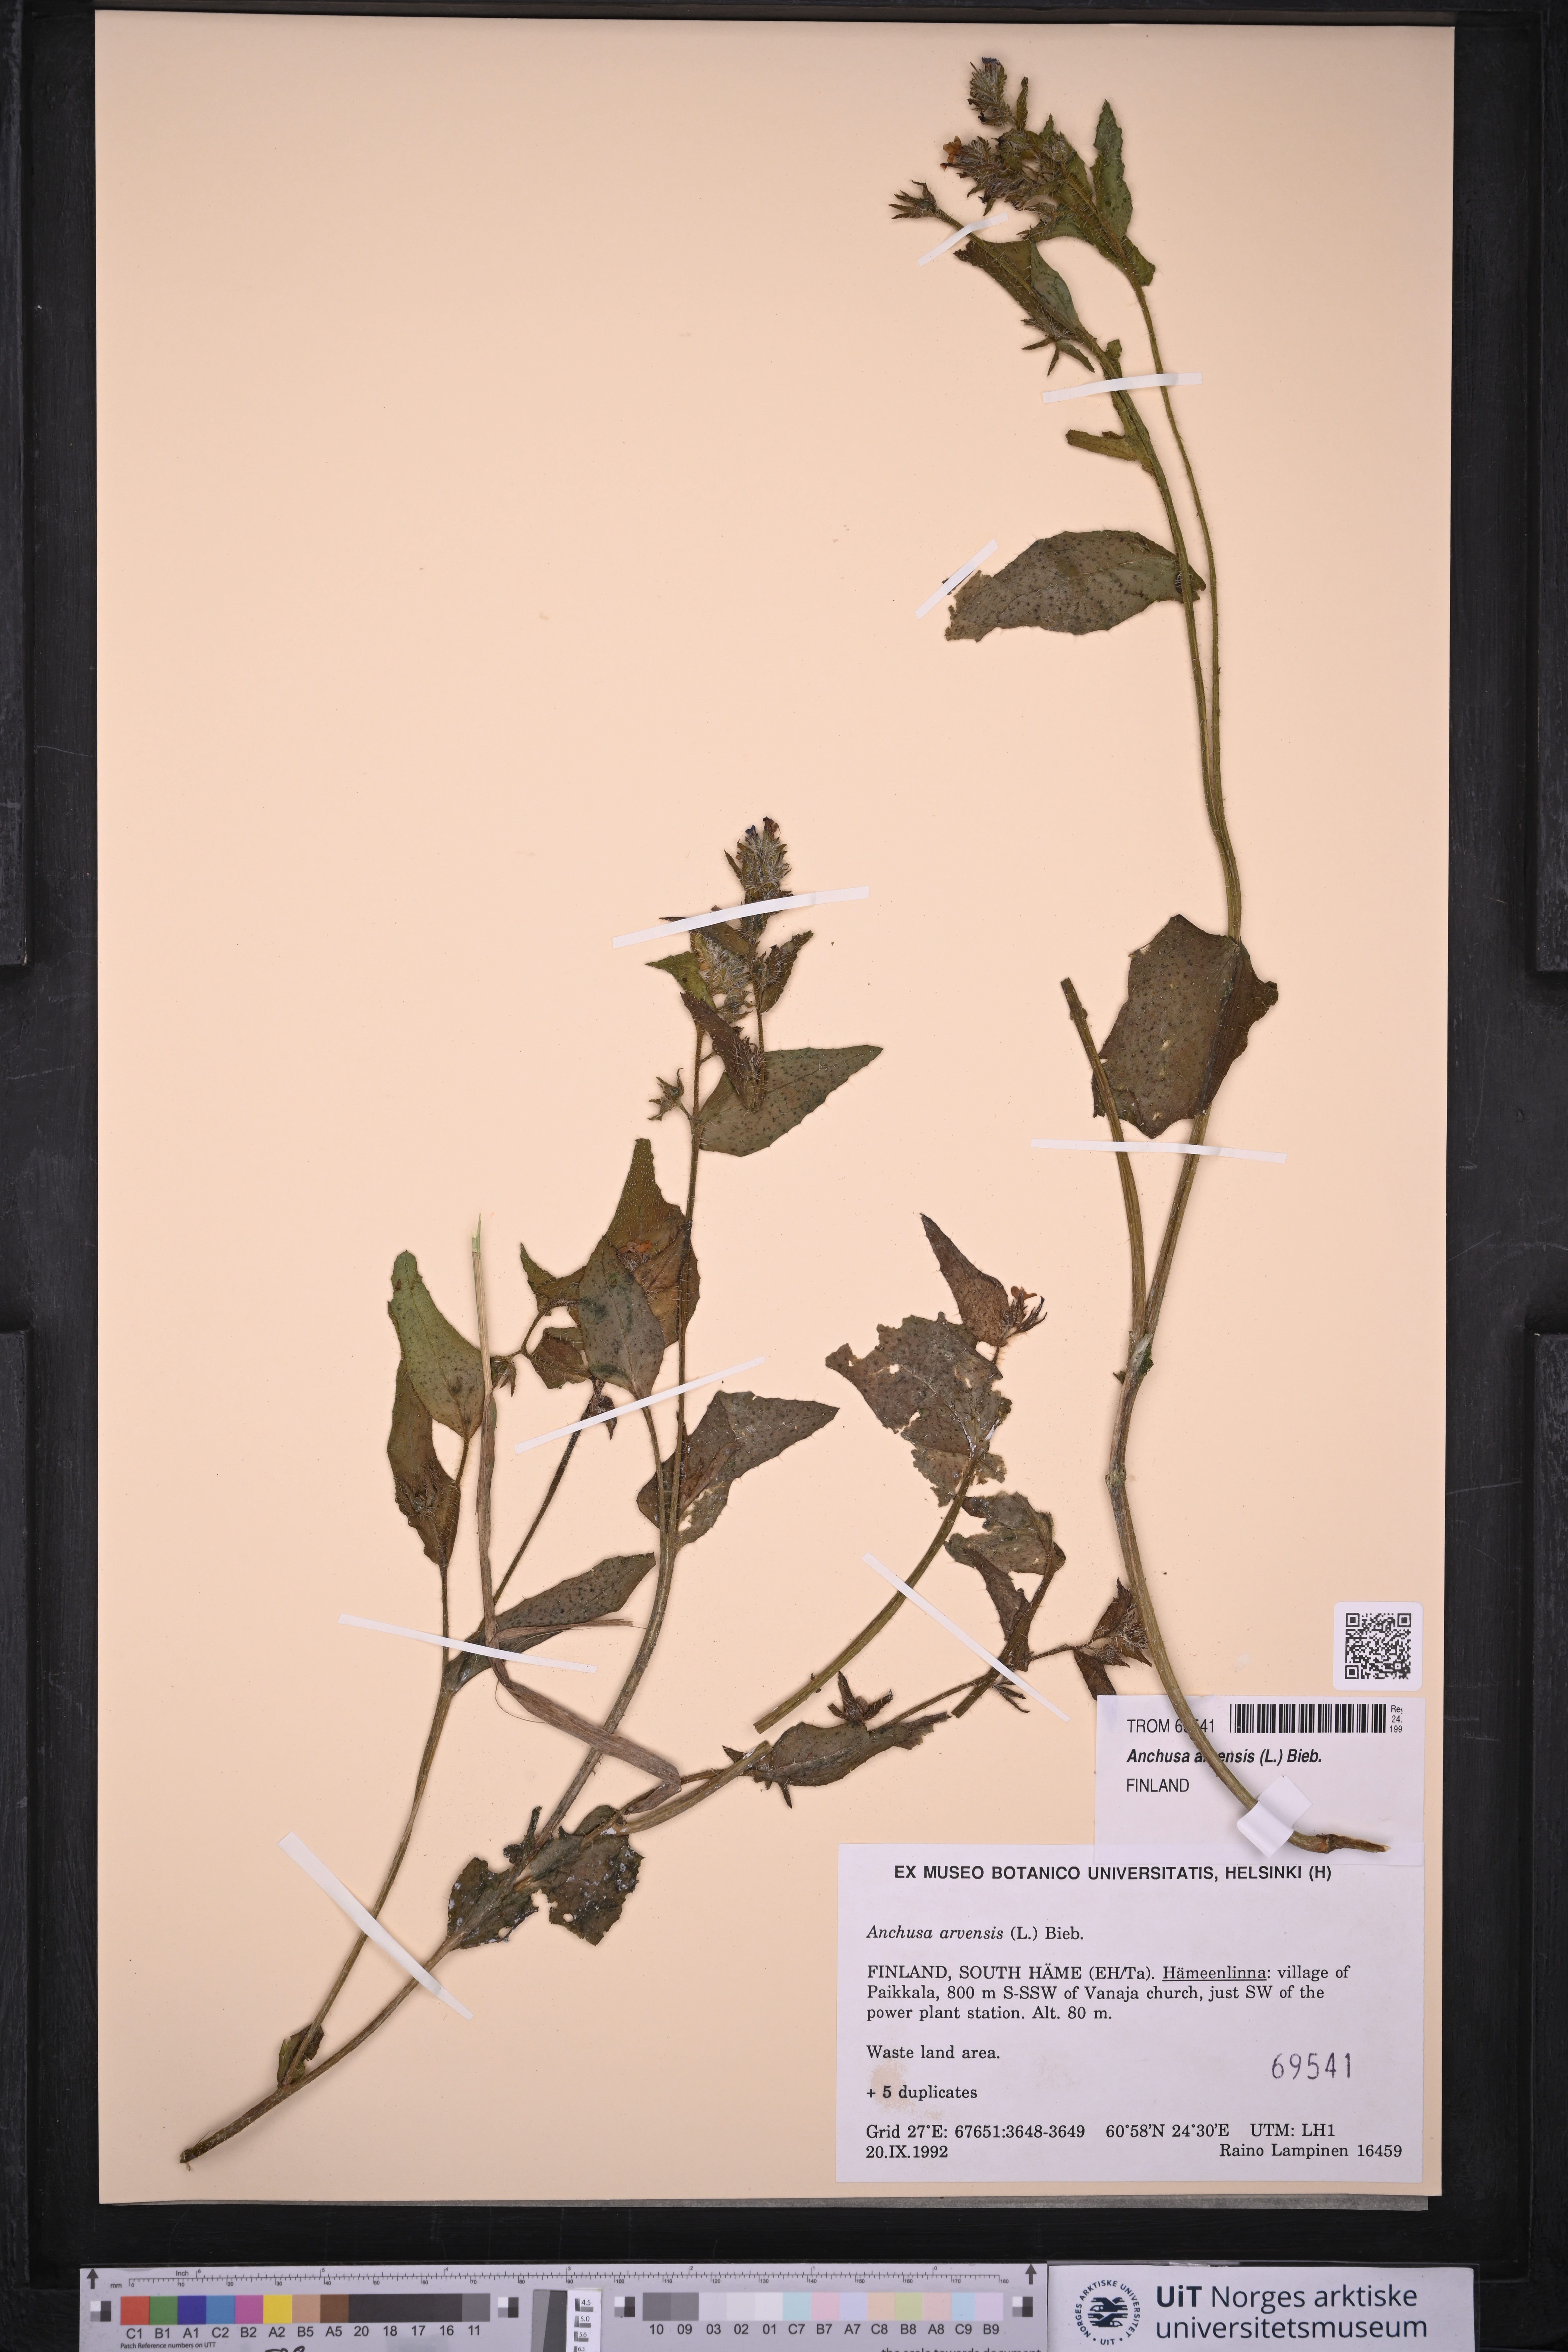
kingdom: Plantae
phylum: Tracheophyta
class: Magnoliopsida
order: Boraginales
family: Boraginaceae
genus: Lycopsis
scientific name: Lycopsis arvensis
